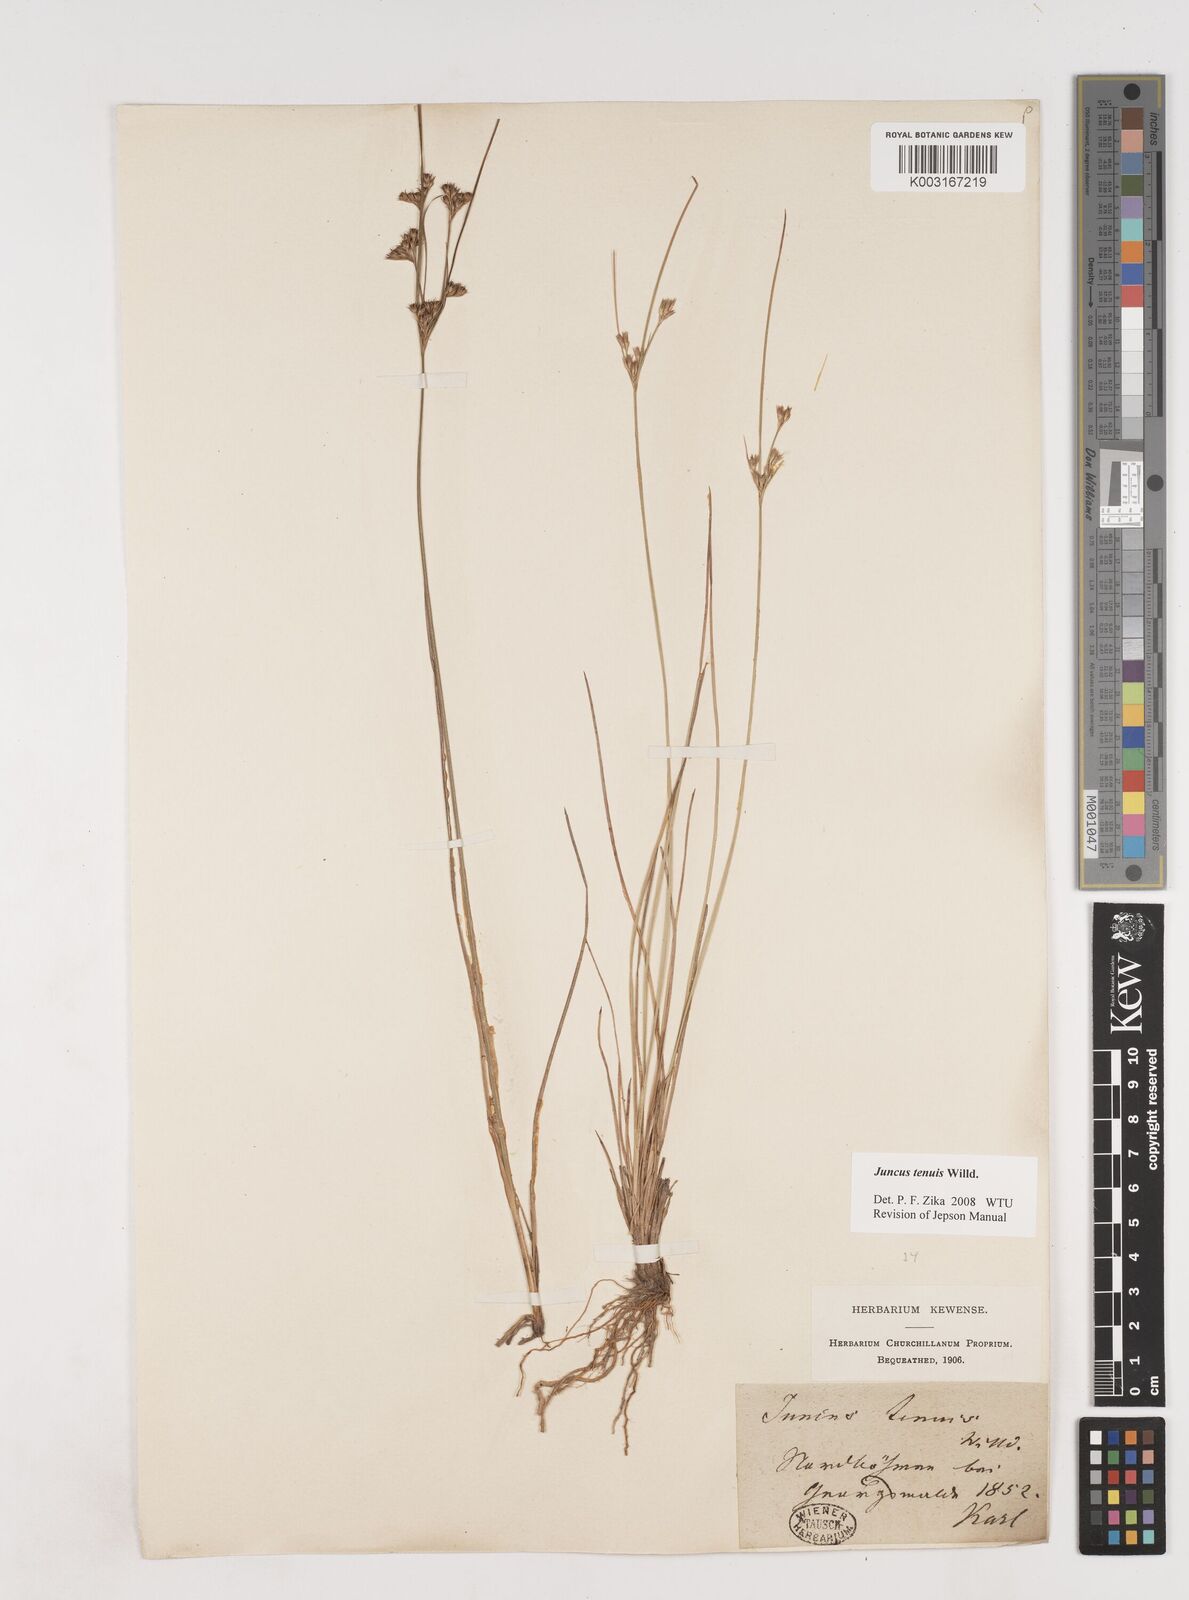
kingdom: Plantae
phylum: Tracheophyta
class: Liliopsida
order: Poales
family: Juncaceae
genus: Juncus
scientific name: Juncus tenuis
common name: Slender rush
